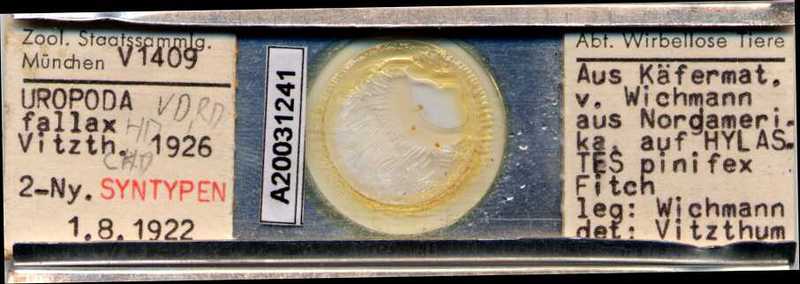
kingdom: Animalia
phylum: Arthropoda
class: Arachnida
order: Mesostigmata
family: Uropodidae
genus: Uropoda
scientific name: Uropoda
